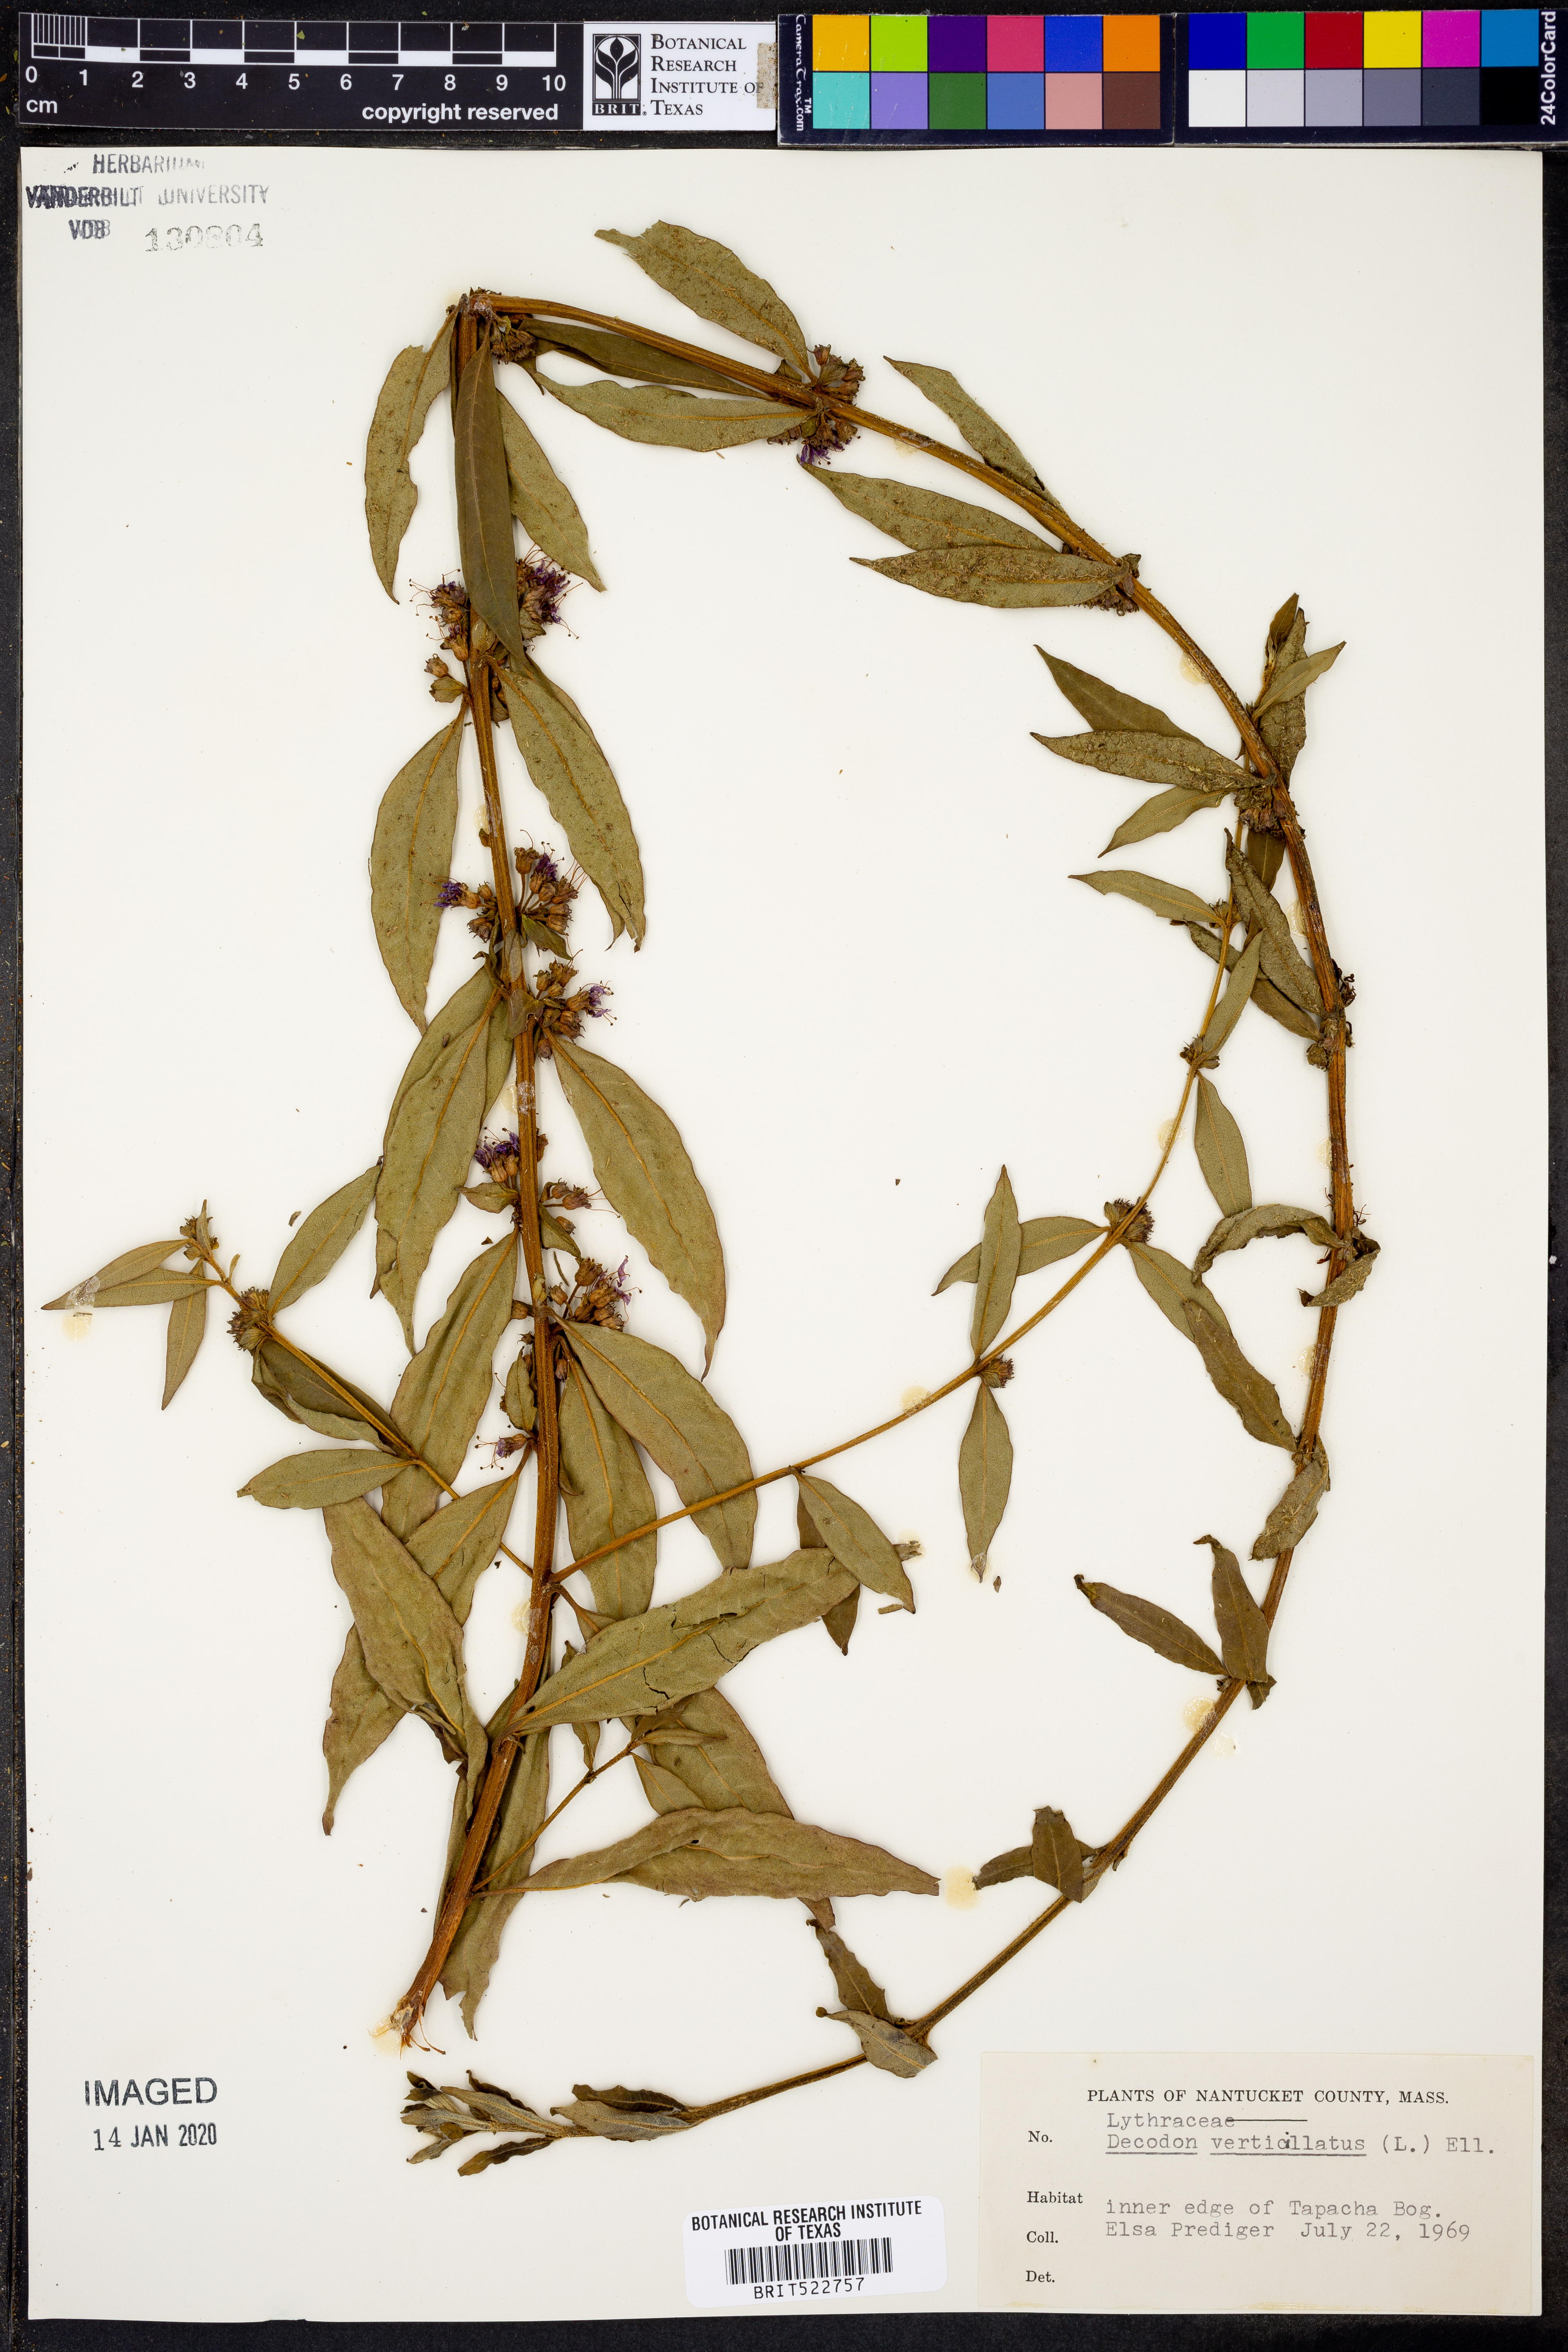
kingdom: Plantae
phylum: Tracheophyta
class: Magnoliopsida
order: Myrtales
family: Lythraceae
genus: Decodon
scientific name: Decodon verticillatus
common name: Hairy swamp loosestrife
